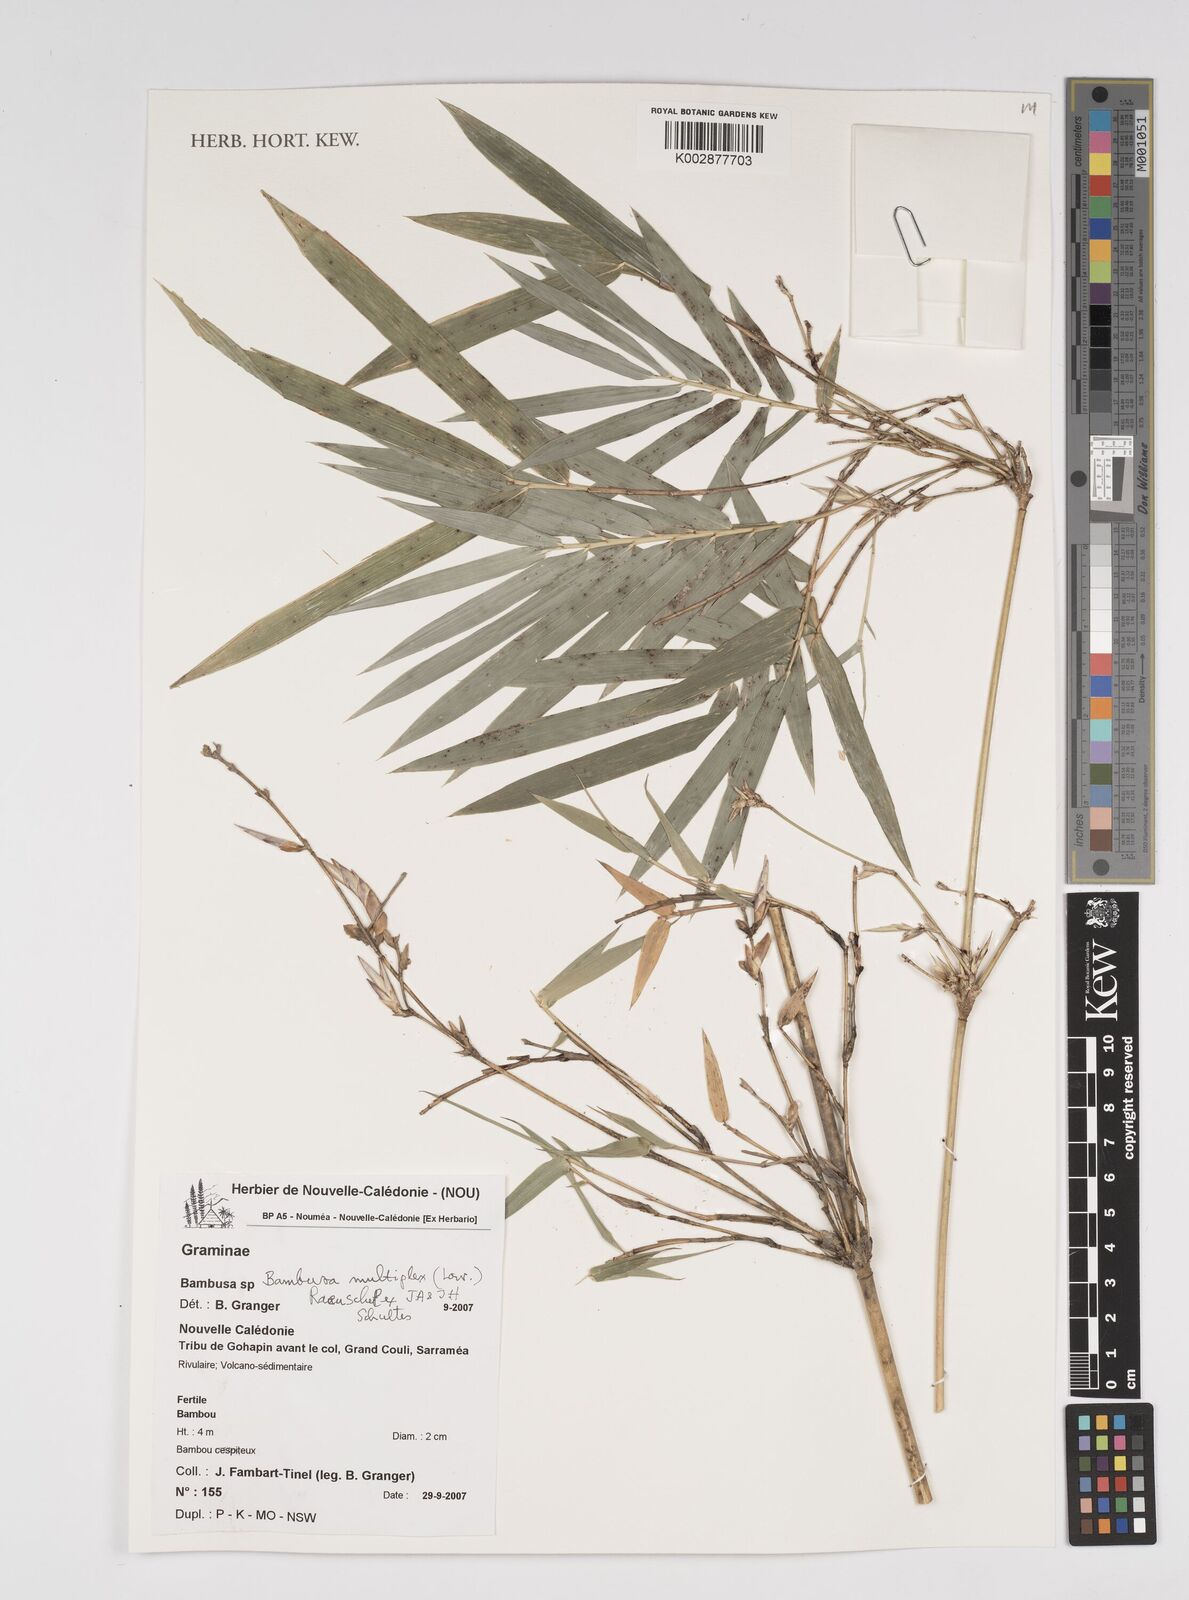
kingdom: Plantae
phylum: Tracheophyta
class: Liliopsida
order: Poales
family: Poaceae
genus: Bambusa
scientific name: Bambusa multiplex
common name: Hedge bamboo
